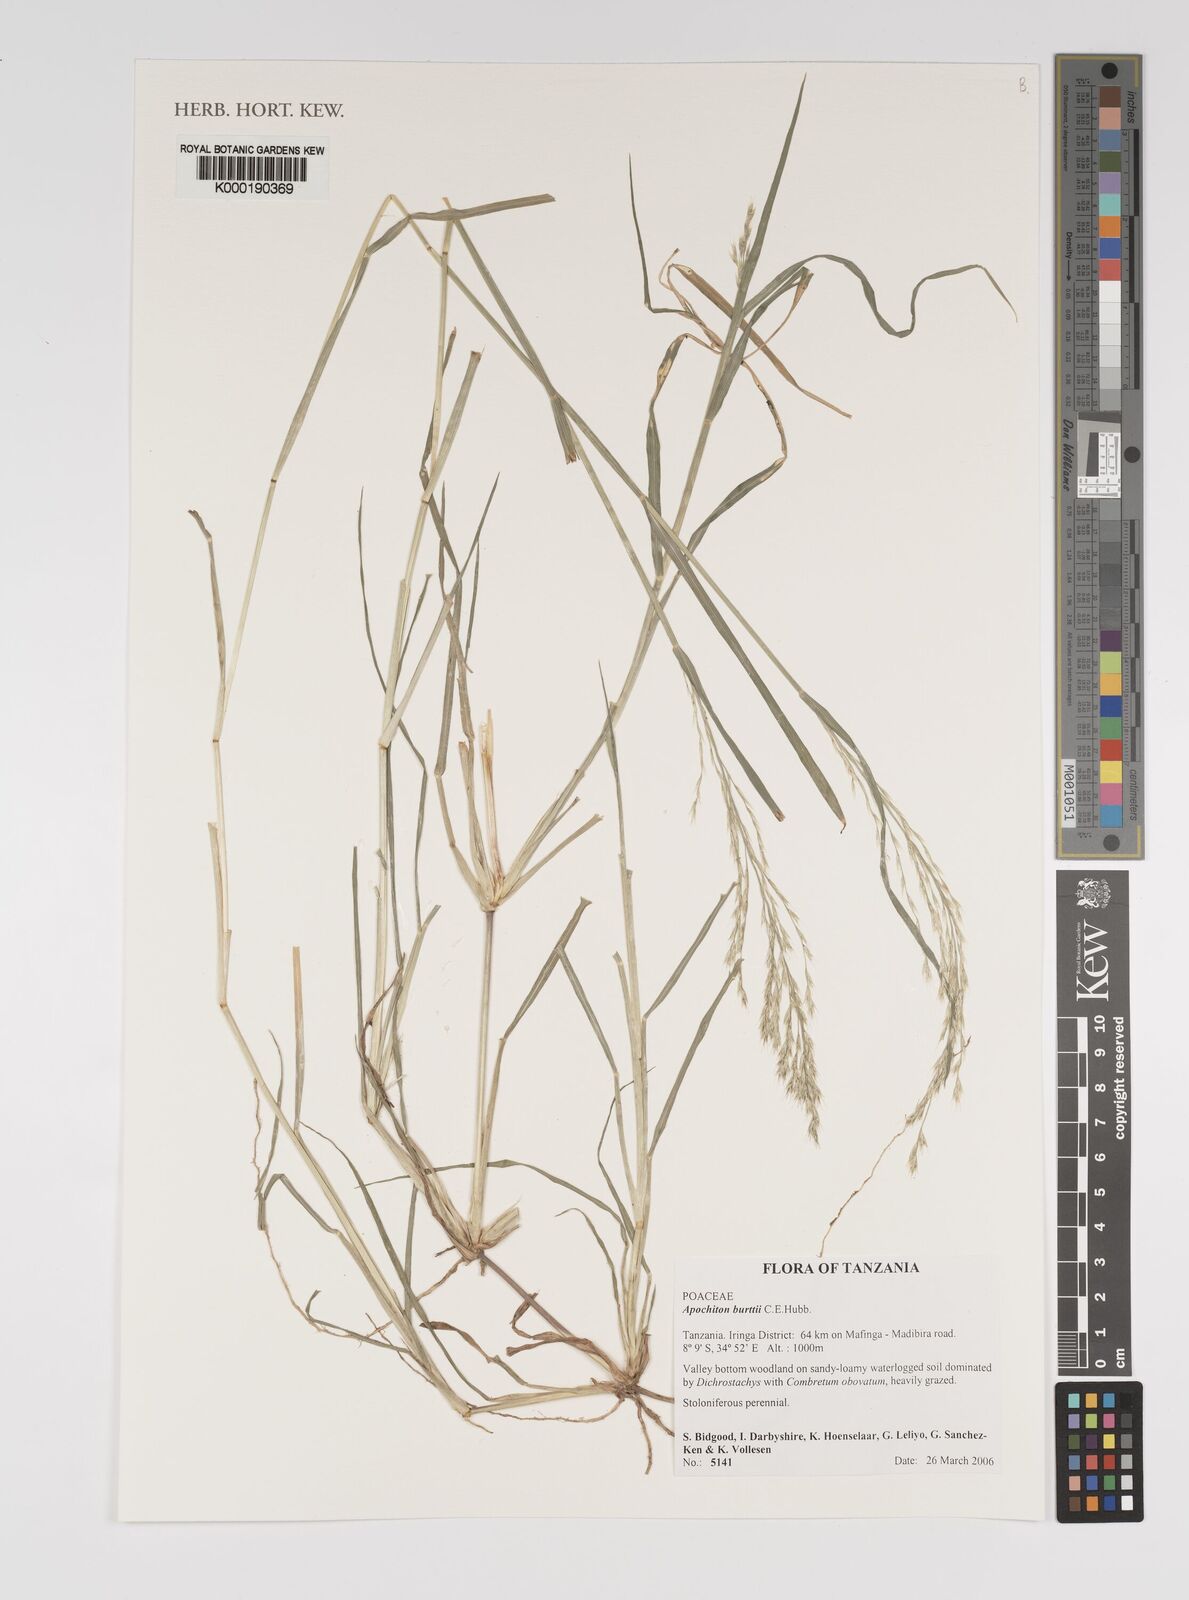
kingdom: Plantae
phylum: Tracheophyta
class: Liliopsida
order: Poales
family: Poaceae
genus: Apochiton
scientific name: Apochiton burttii
